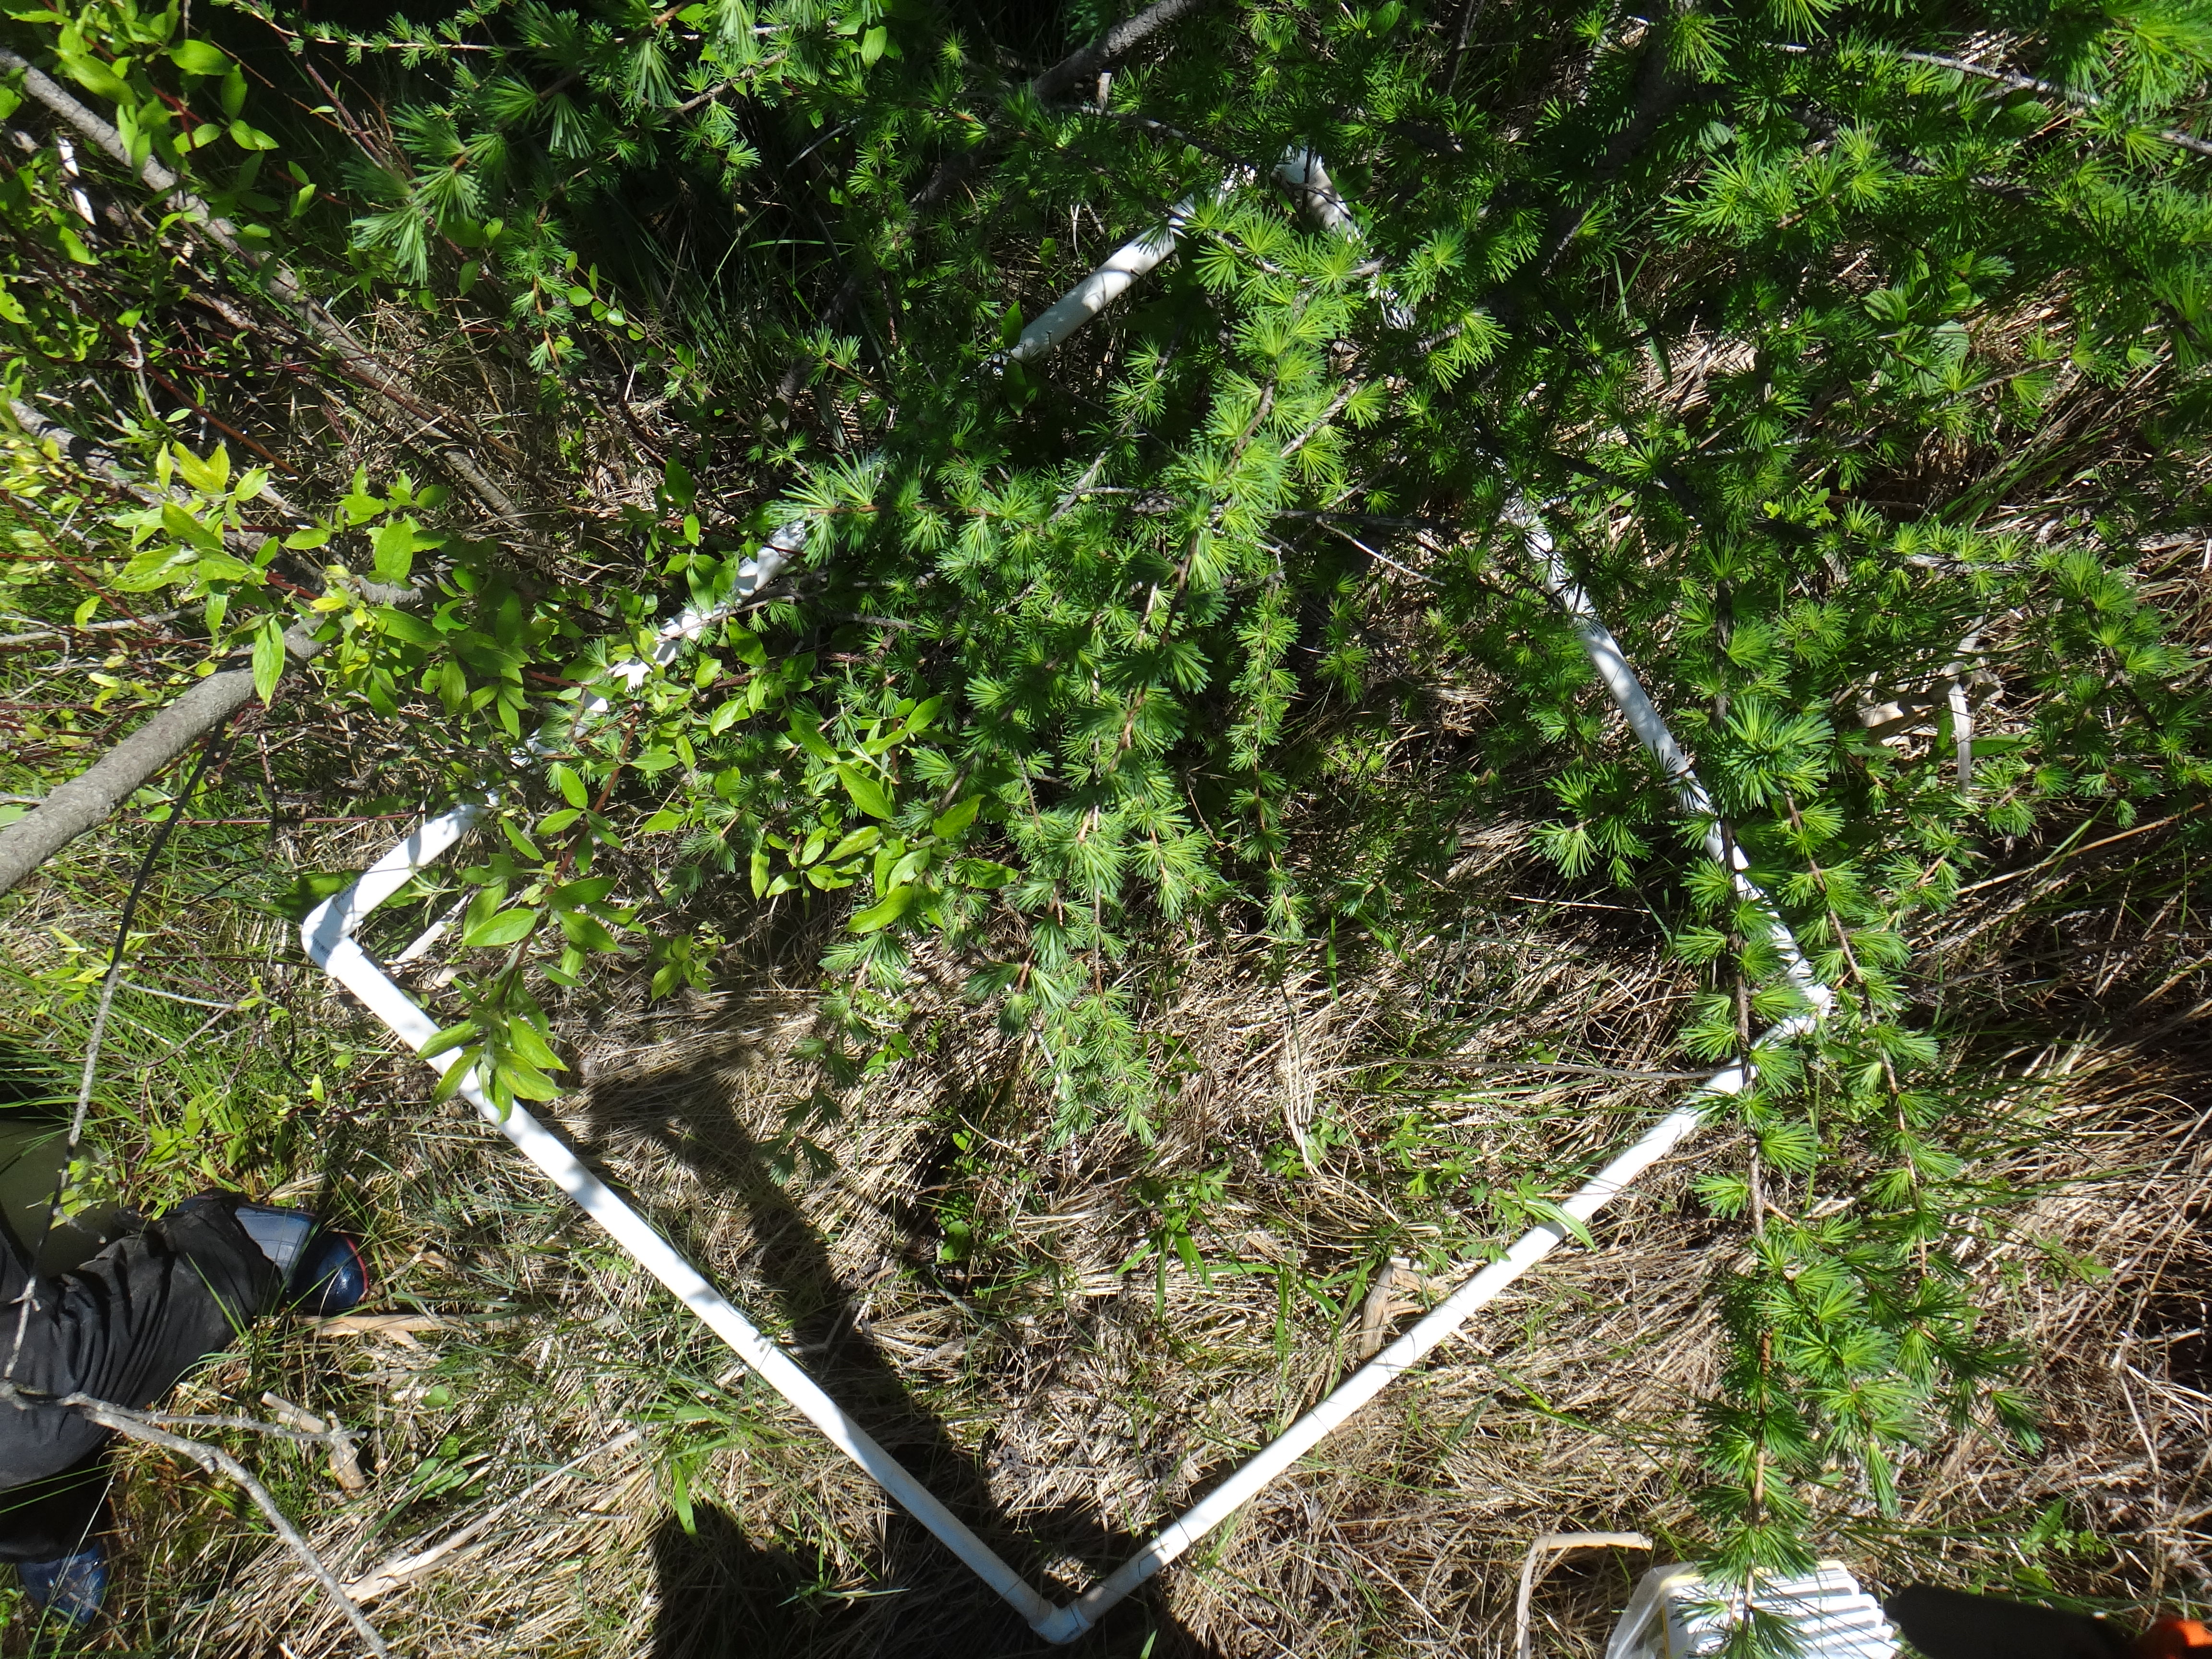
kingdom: Plantae
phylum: Tracheophyta
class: Magnoliopsida
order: Rosales
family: Rhamnaceae
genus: Frangula
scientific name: Frangula alnus
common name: Alder buckthorn
